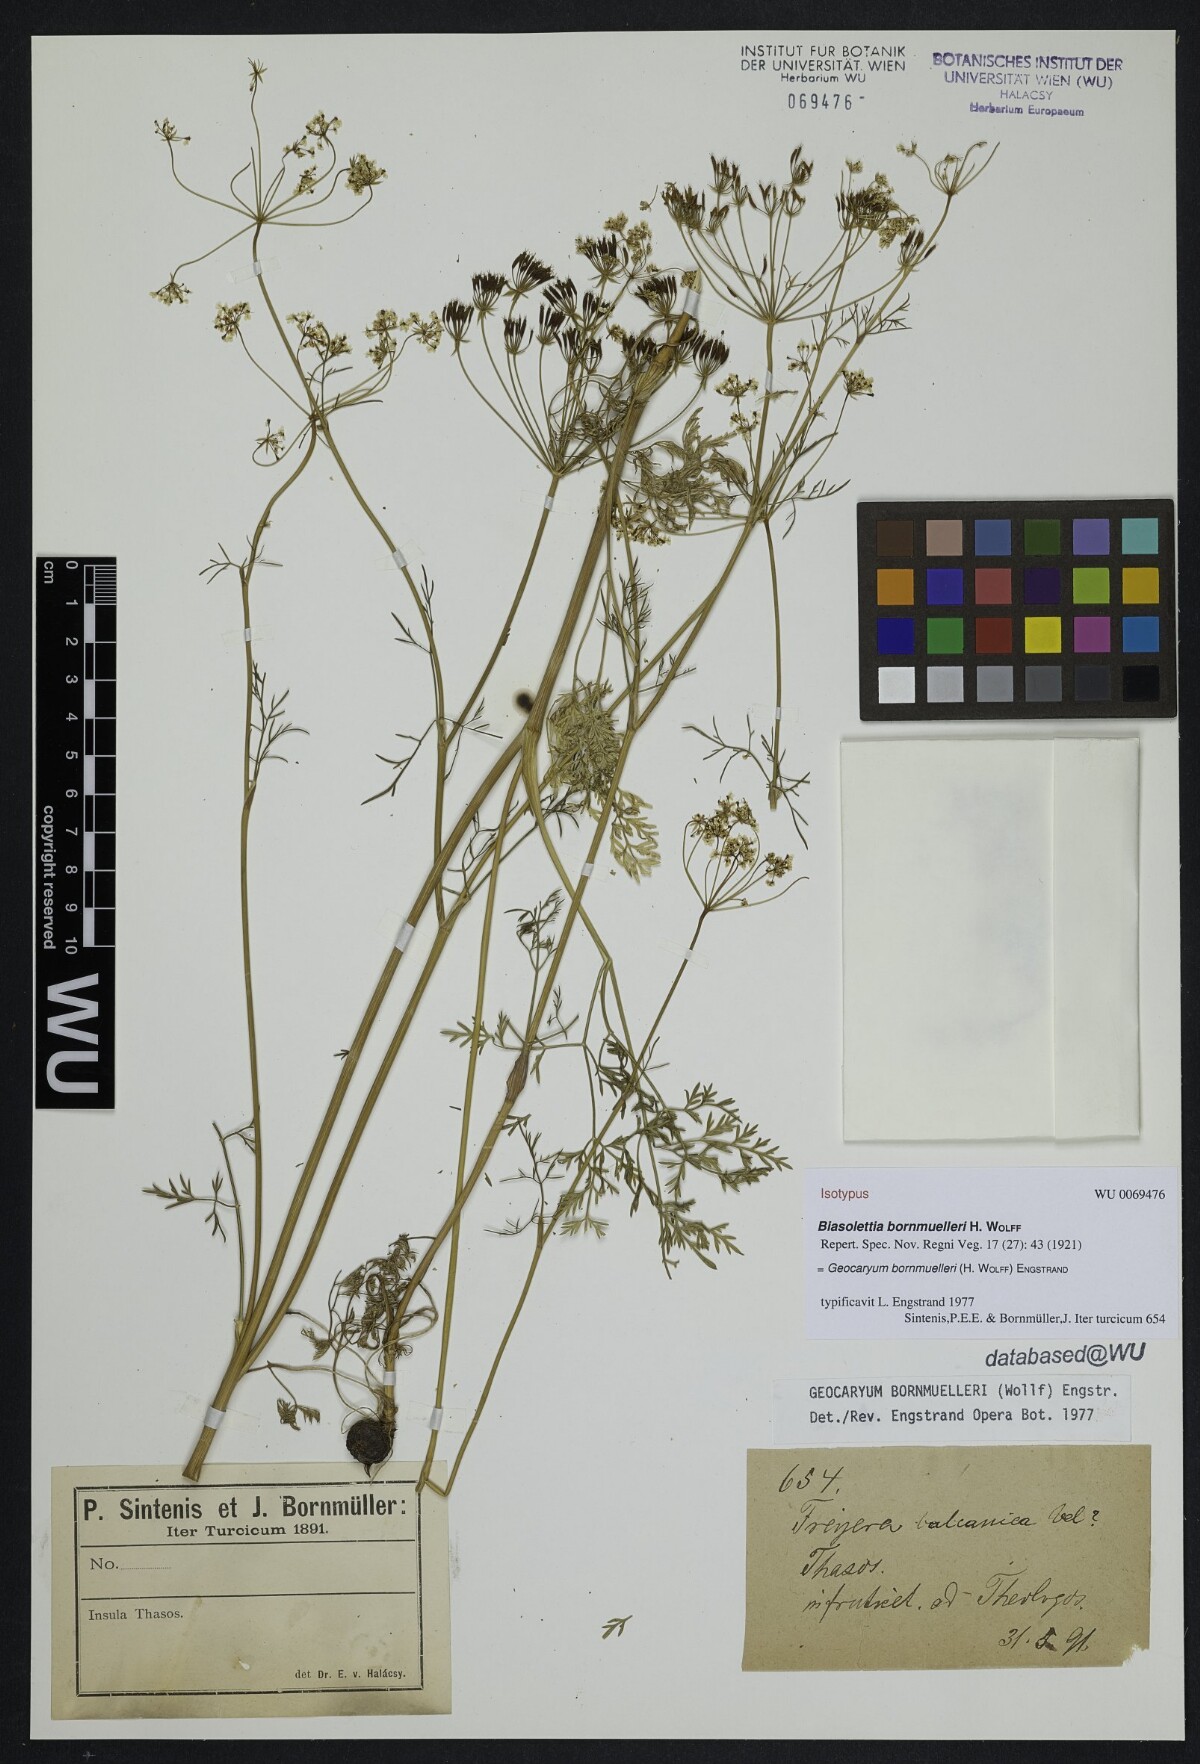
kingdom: Plantae
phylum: Tracheophyta
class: Magnoliopsida
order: Apiales
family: Apiaceae
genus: Geocaryum
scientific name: Geocaryum bornmuelleri
